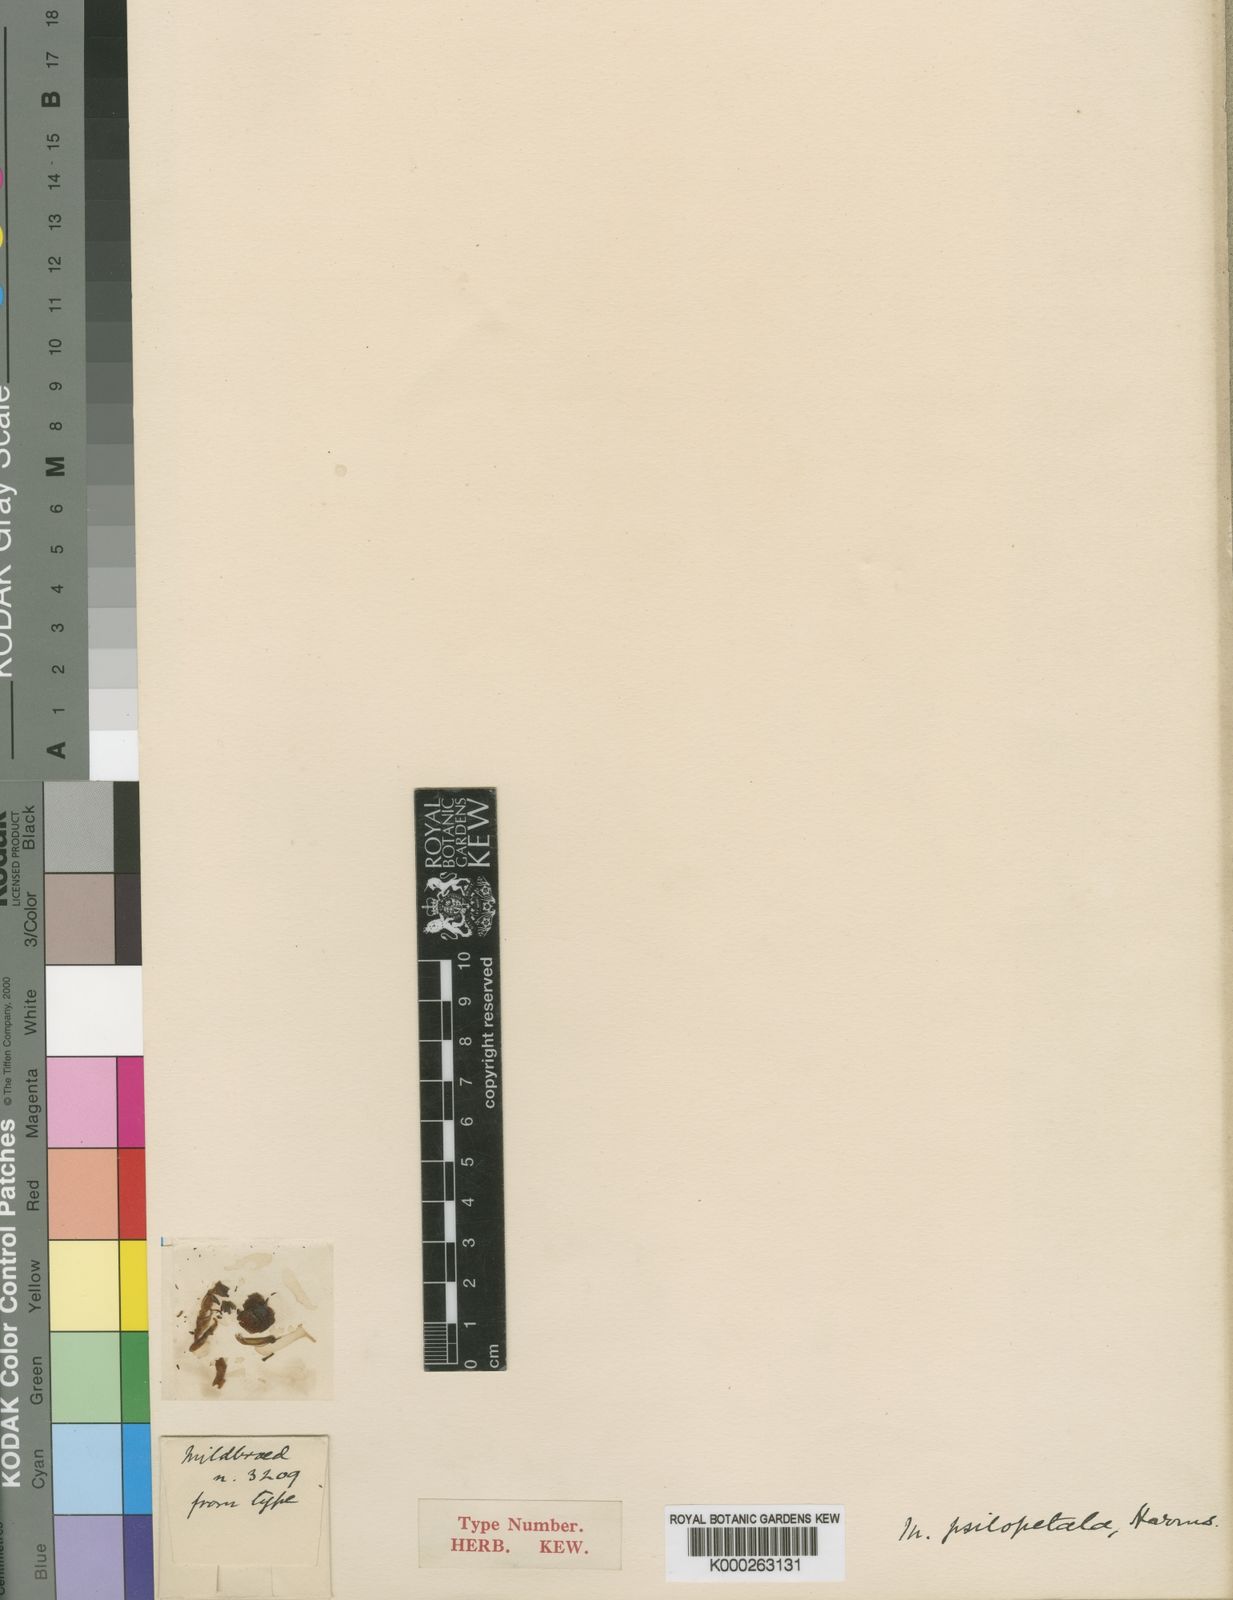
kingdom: Plantae
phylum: Tracheophyta
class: Magnoliopsida
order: Fabales
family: Fabaceae
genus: Millettia
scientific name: Millettia psilopetala
